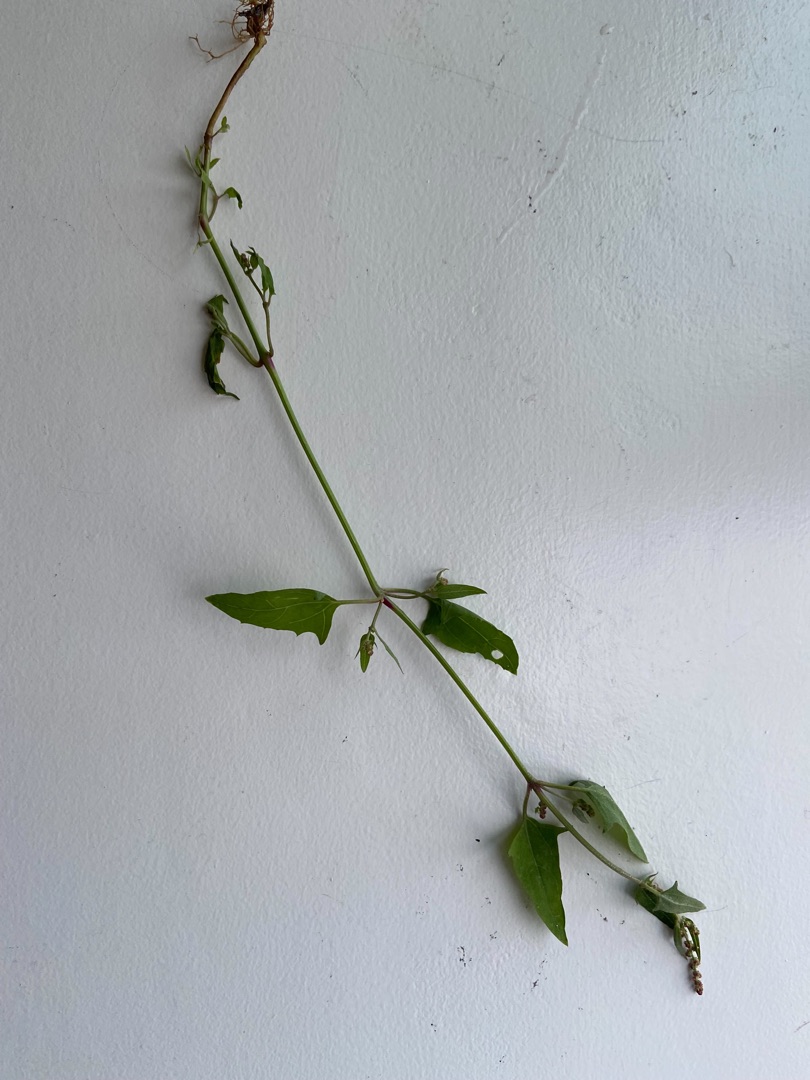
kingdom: Plantae
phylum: Tracheophyta
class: Magnoliopsida
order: Caryophyllales
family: Amaranthaceae
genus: Atriplex
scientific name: Atriplex prostrata
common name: Spyd-mælde
